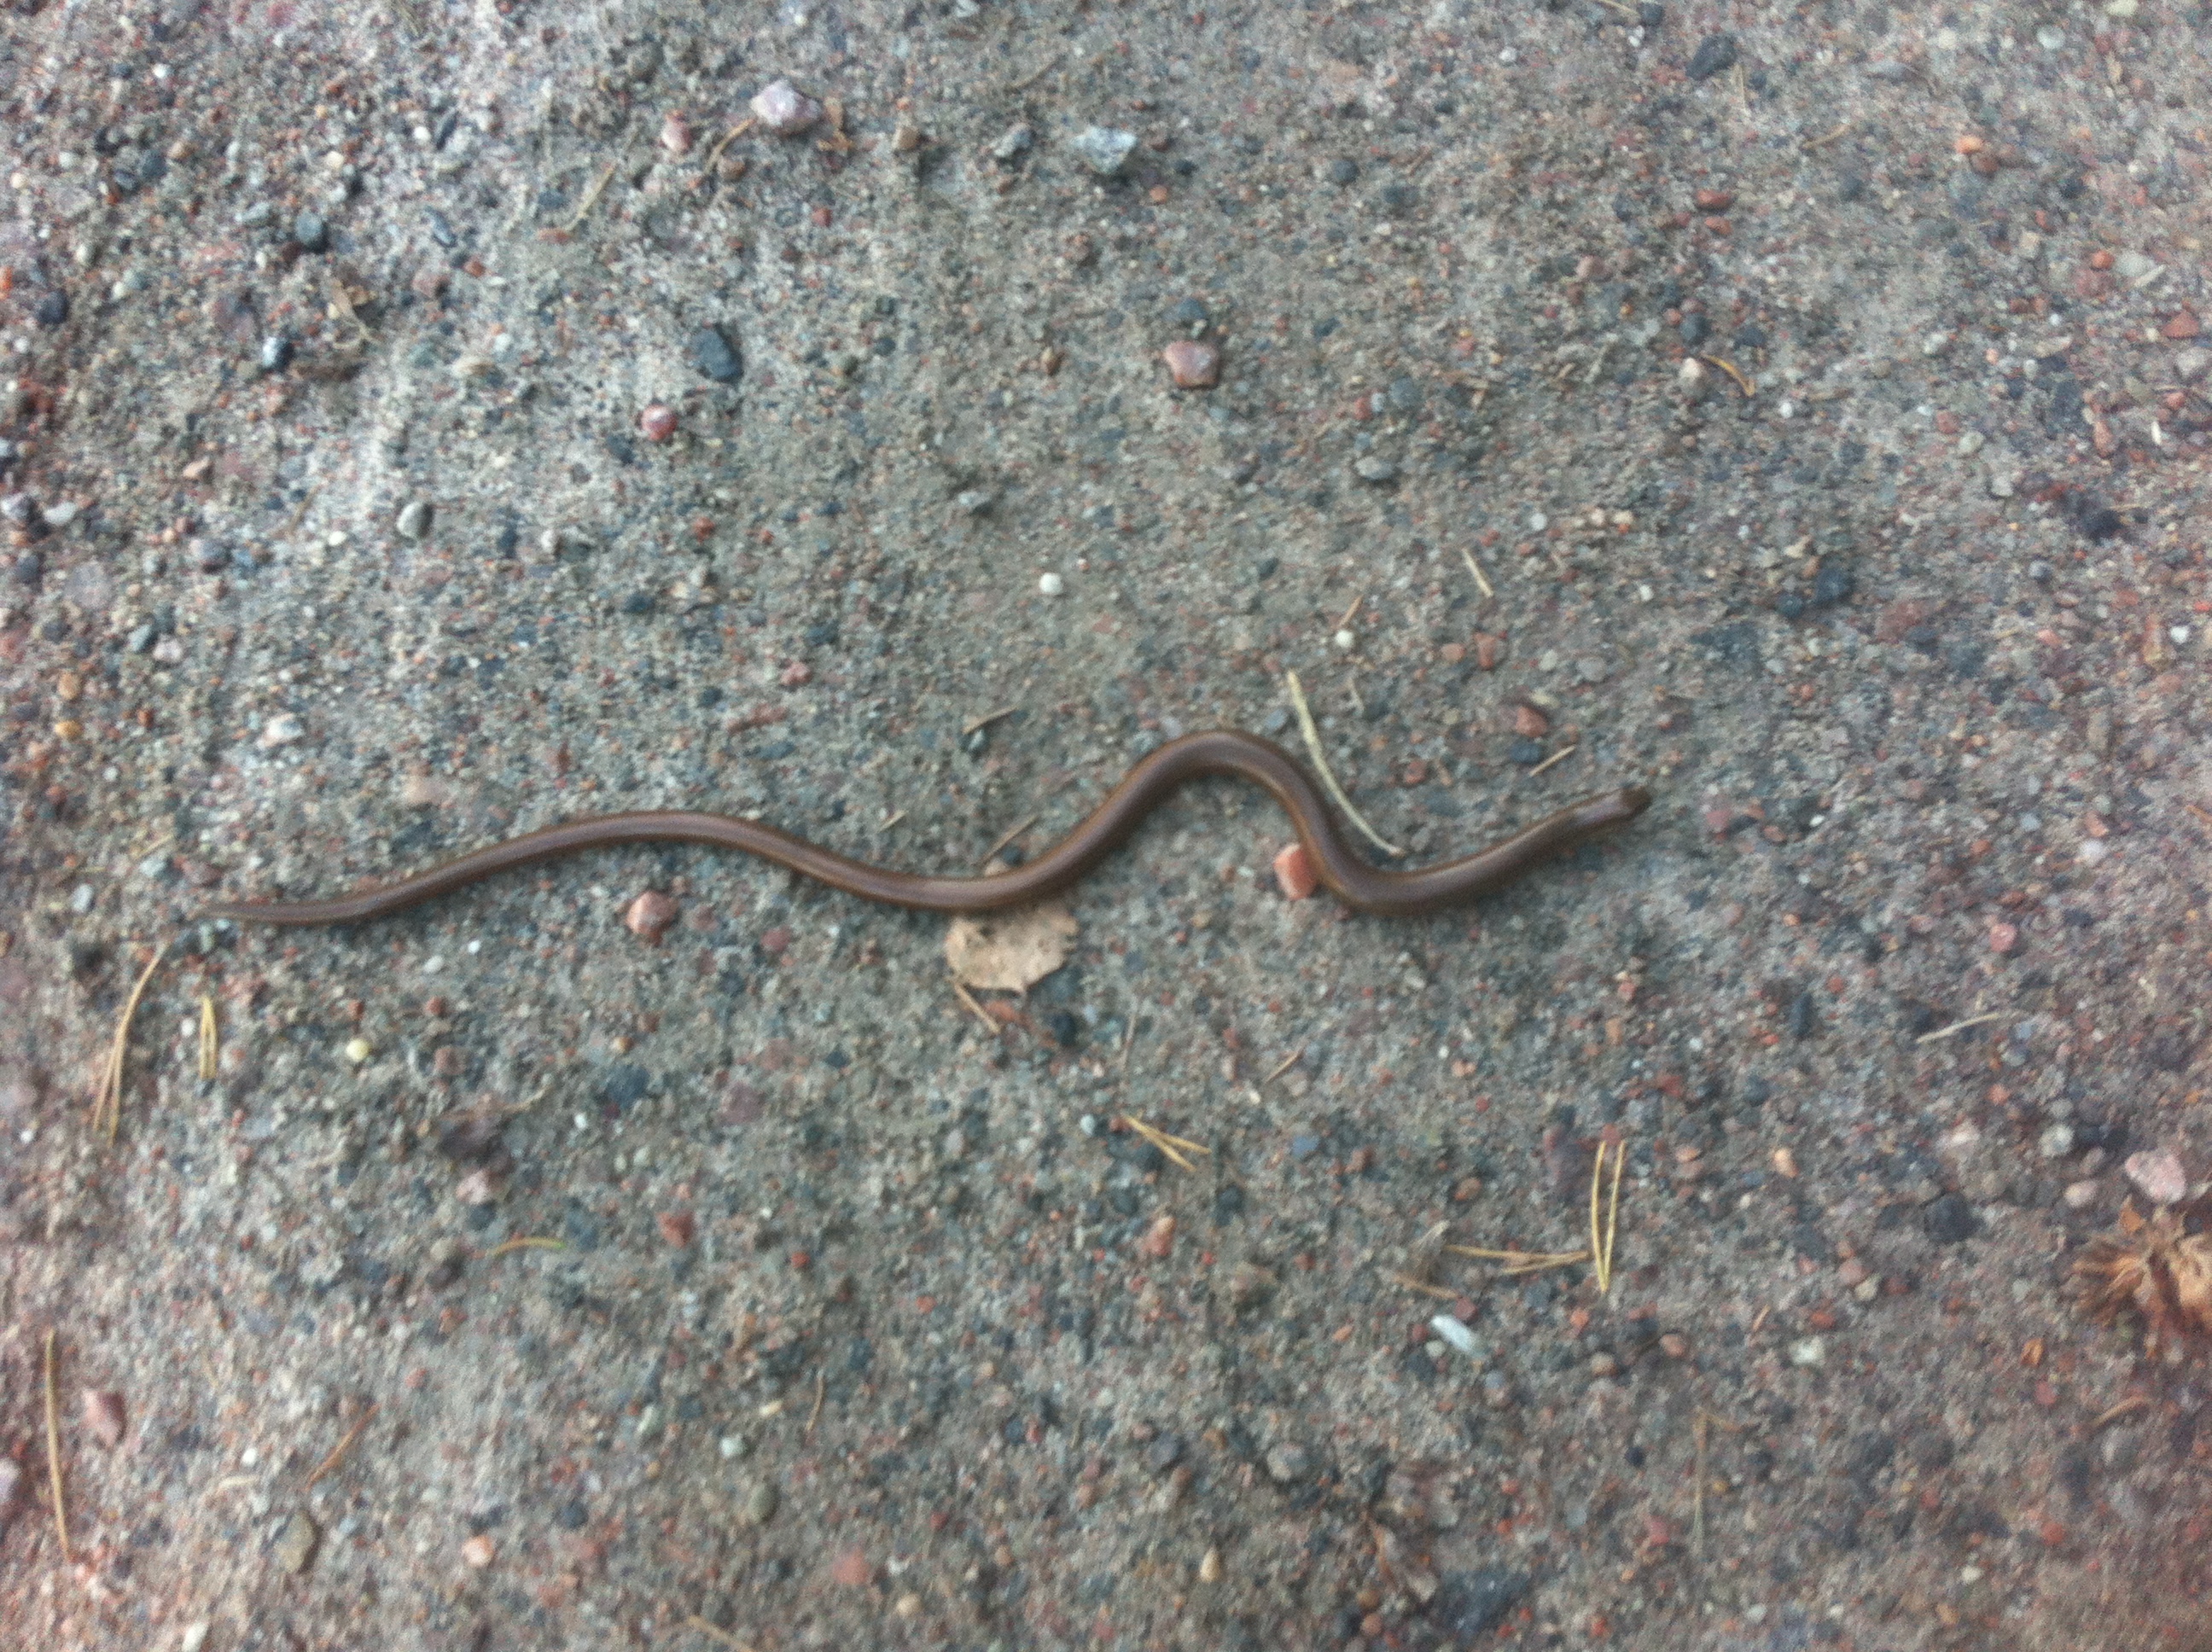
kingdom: Animalia
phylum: Chordata
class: Squamata
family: Anguidae
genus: Anguis
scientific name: Anguis colchica
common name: Slow worm
